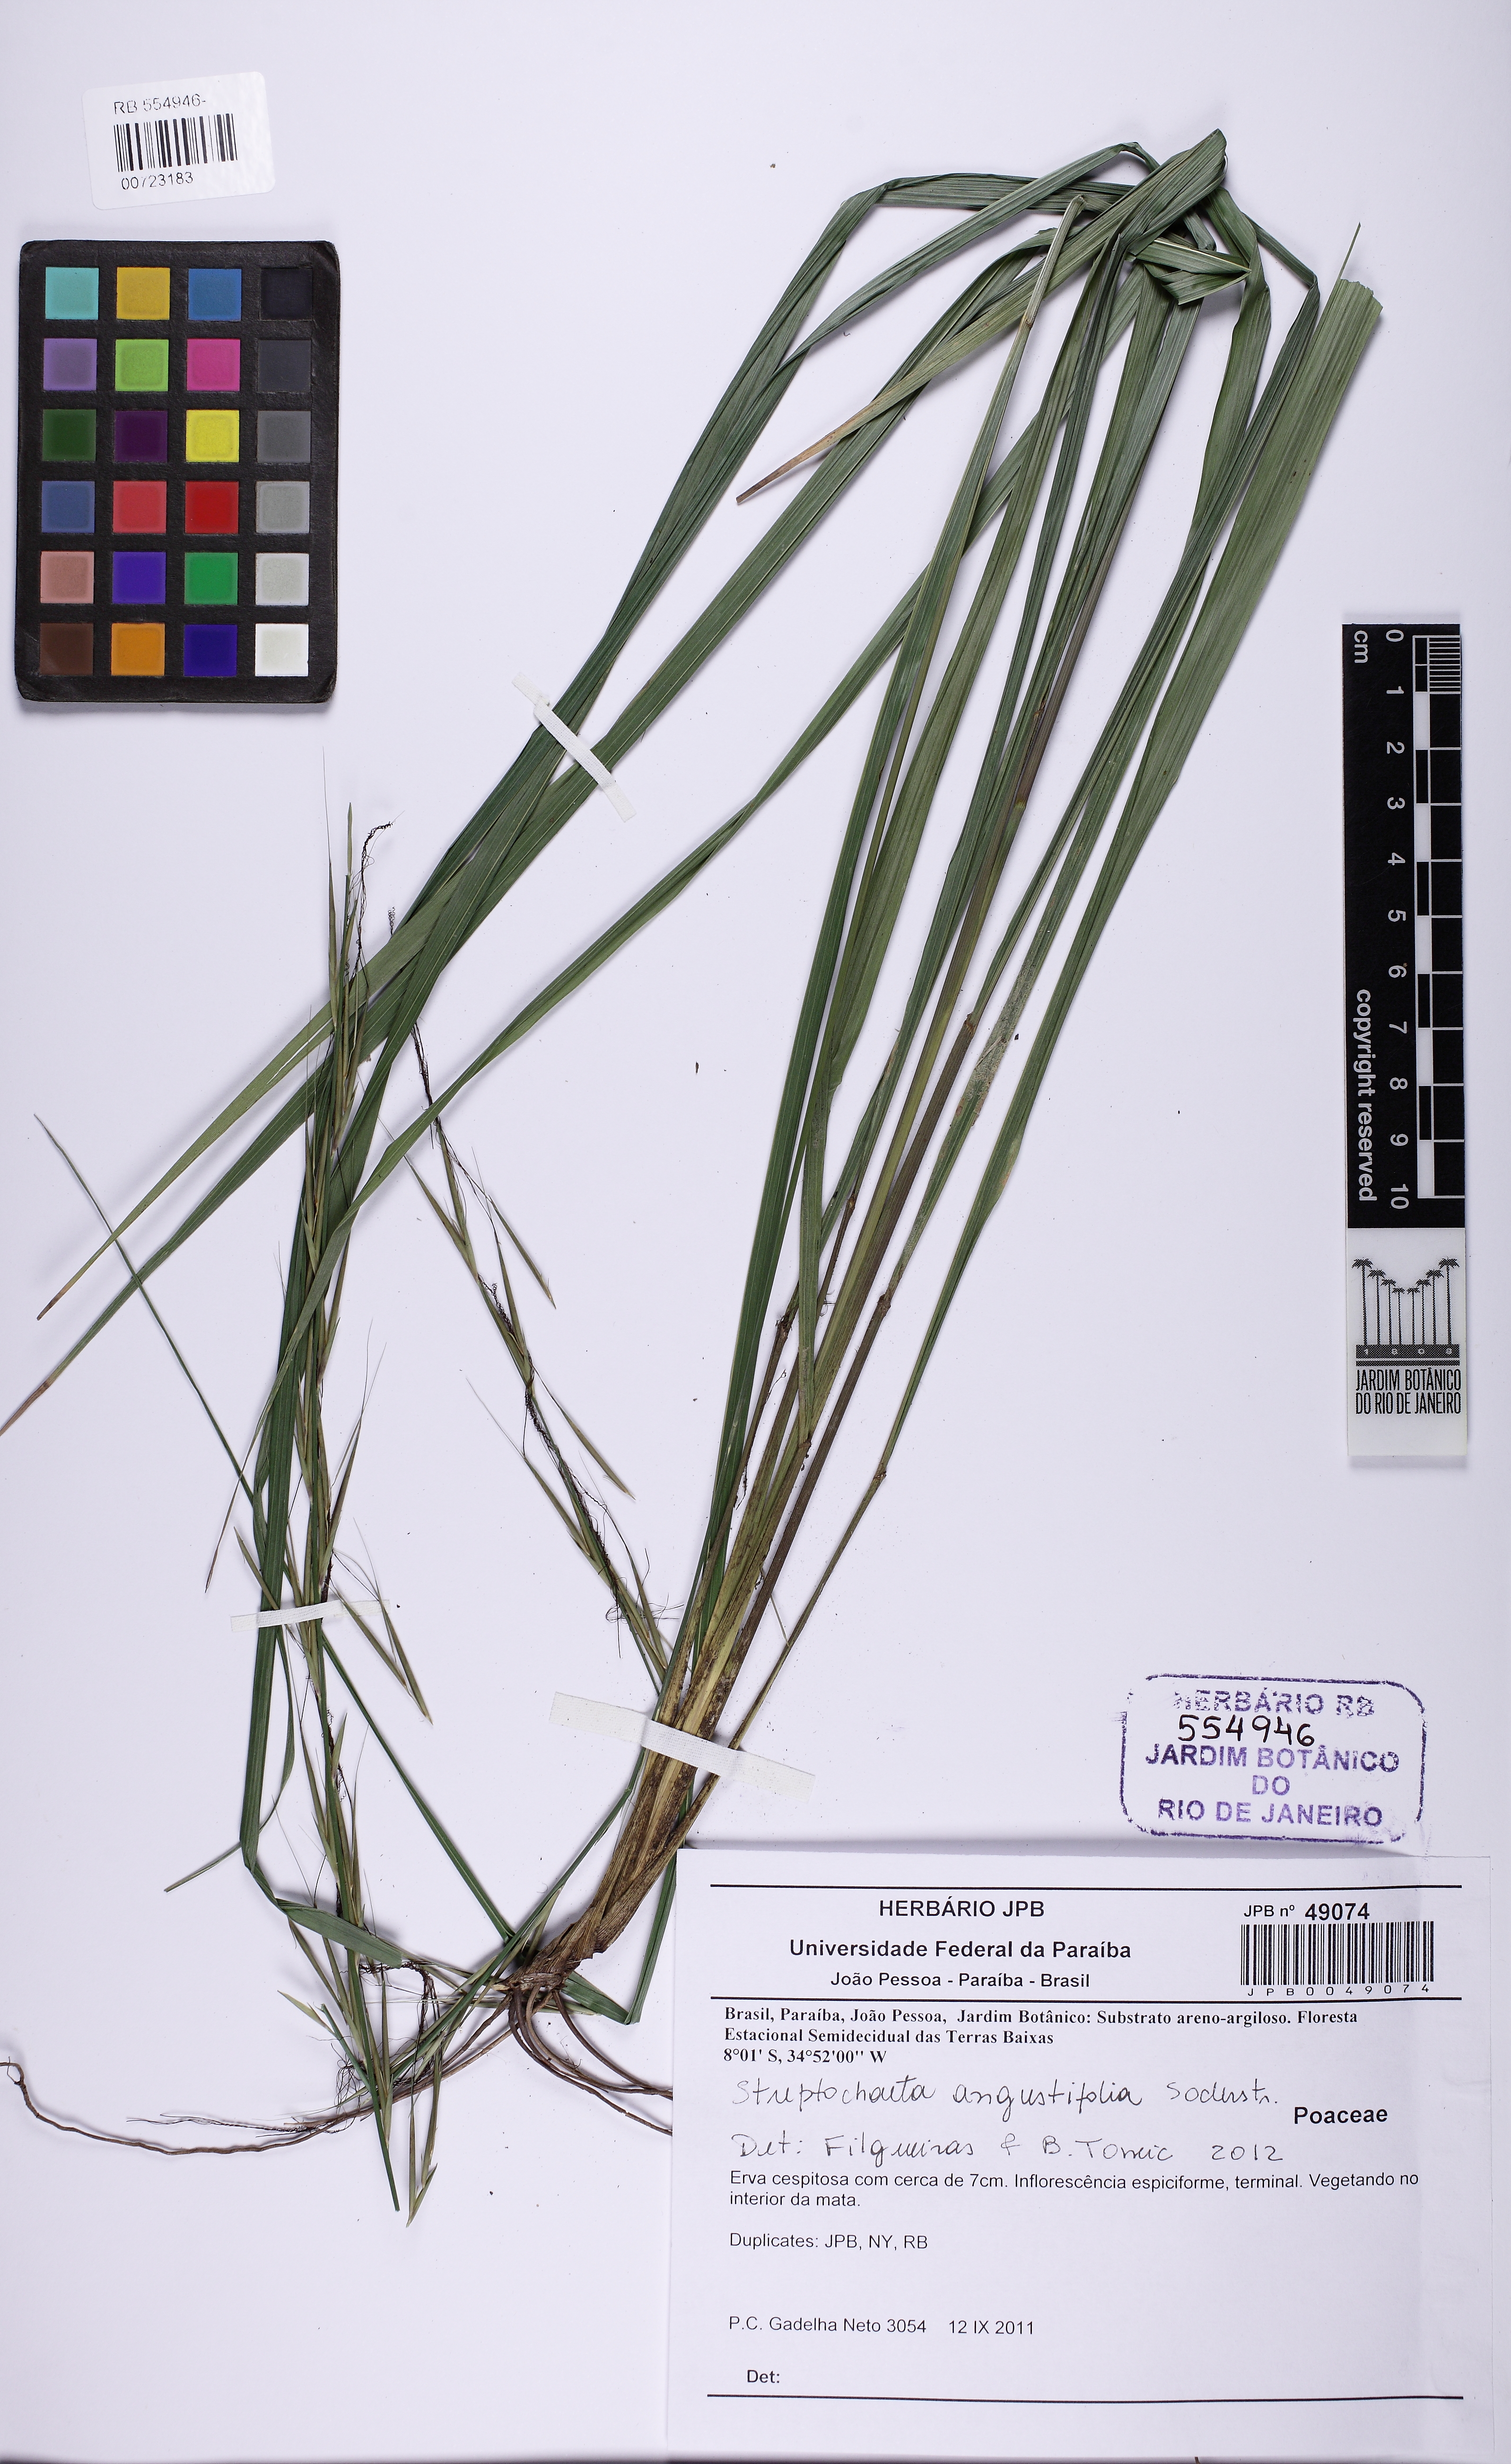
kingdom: Plantae
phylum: Tracheophyta
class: Liliopsida
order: Poales
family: Poaceae
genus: Streptochaeta
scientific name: Streptochaeta angustifolia
